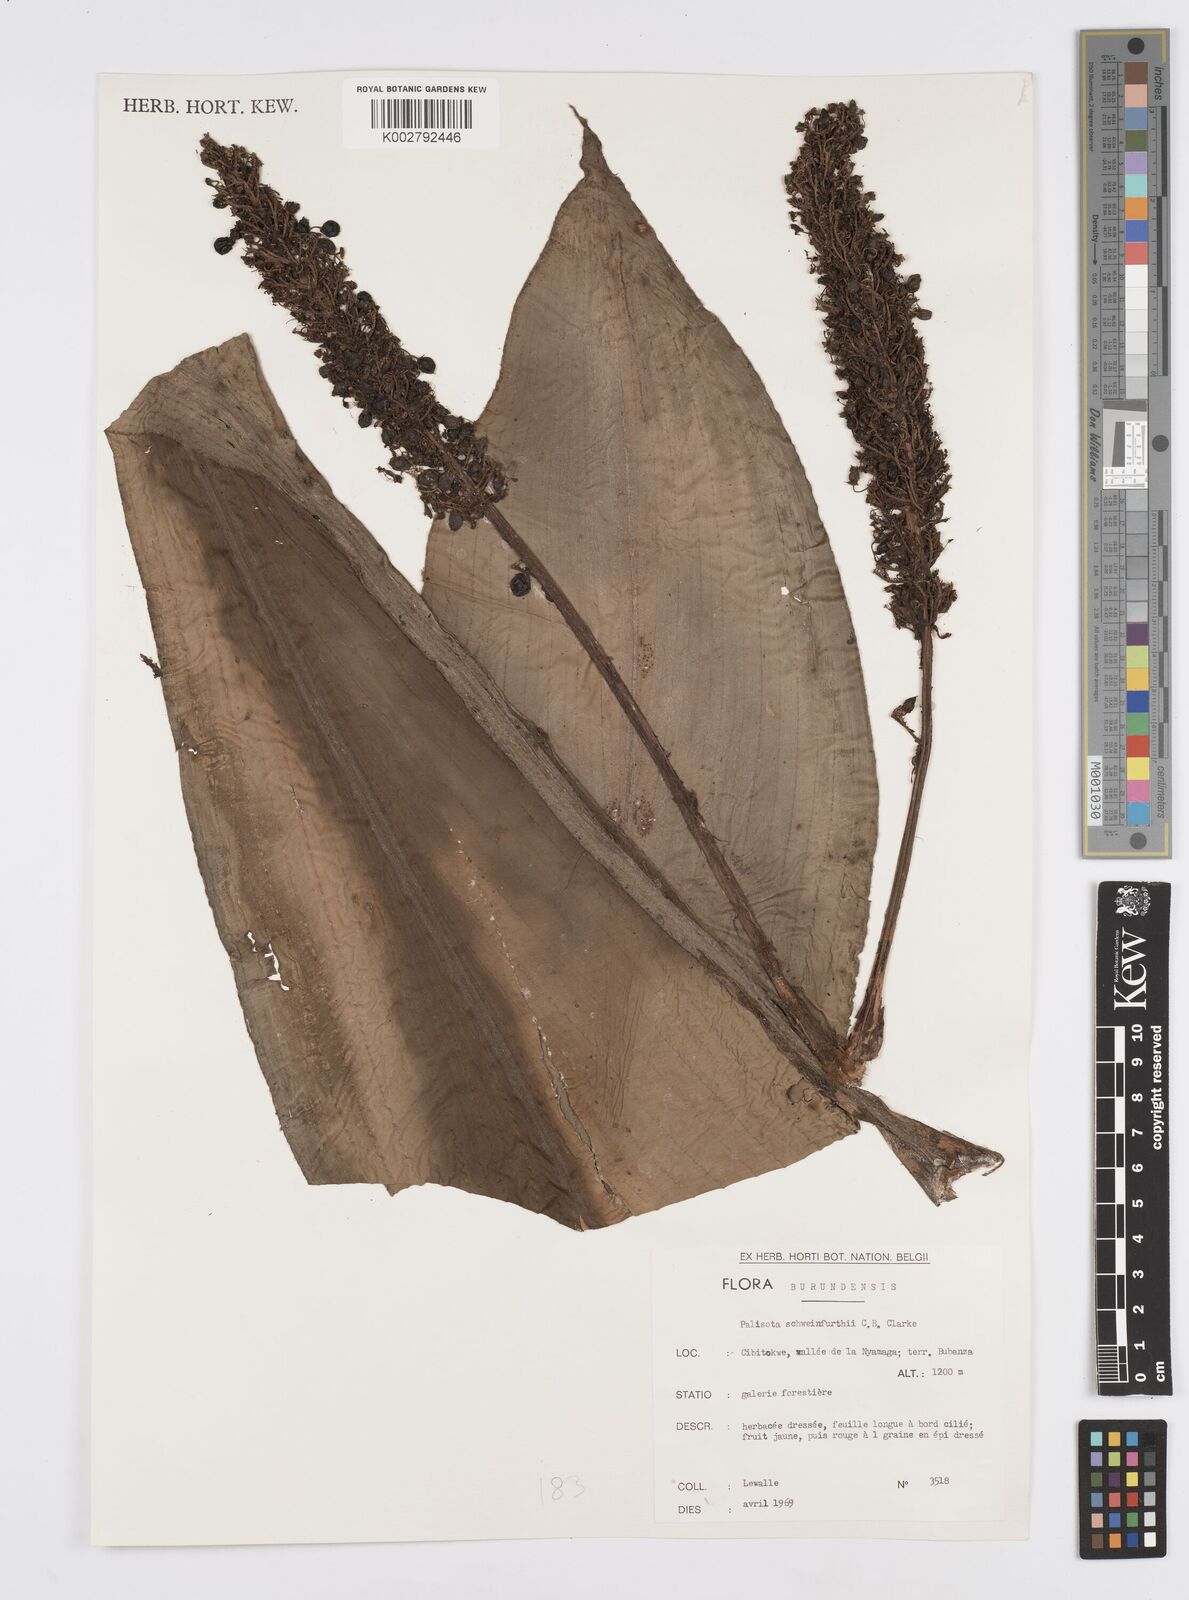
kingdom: Plantae
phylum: Tracheophyta
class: Liliopsida
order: Commelinales
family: Commelinaceae
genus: Palisota
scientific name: Palisota schweinfurthii
